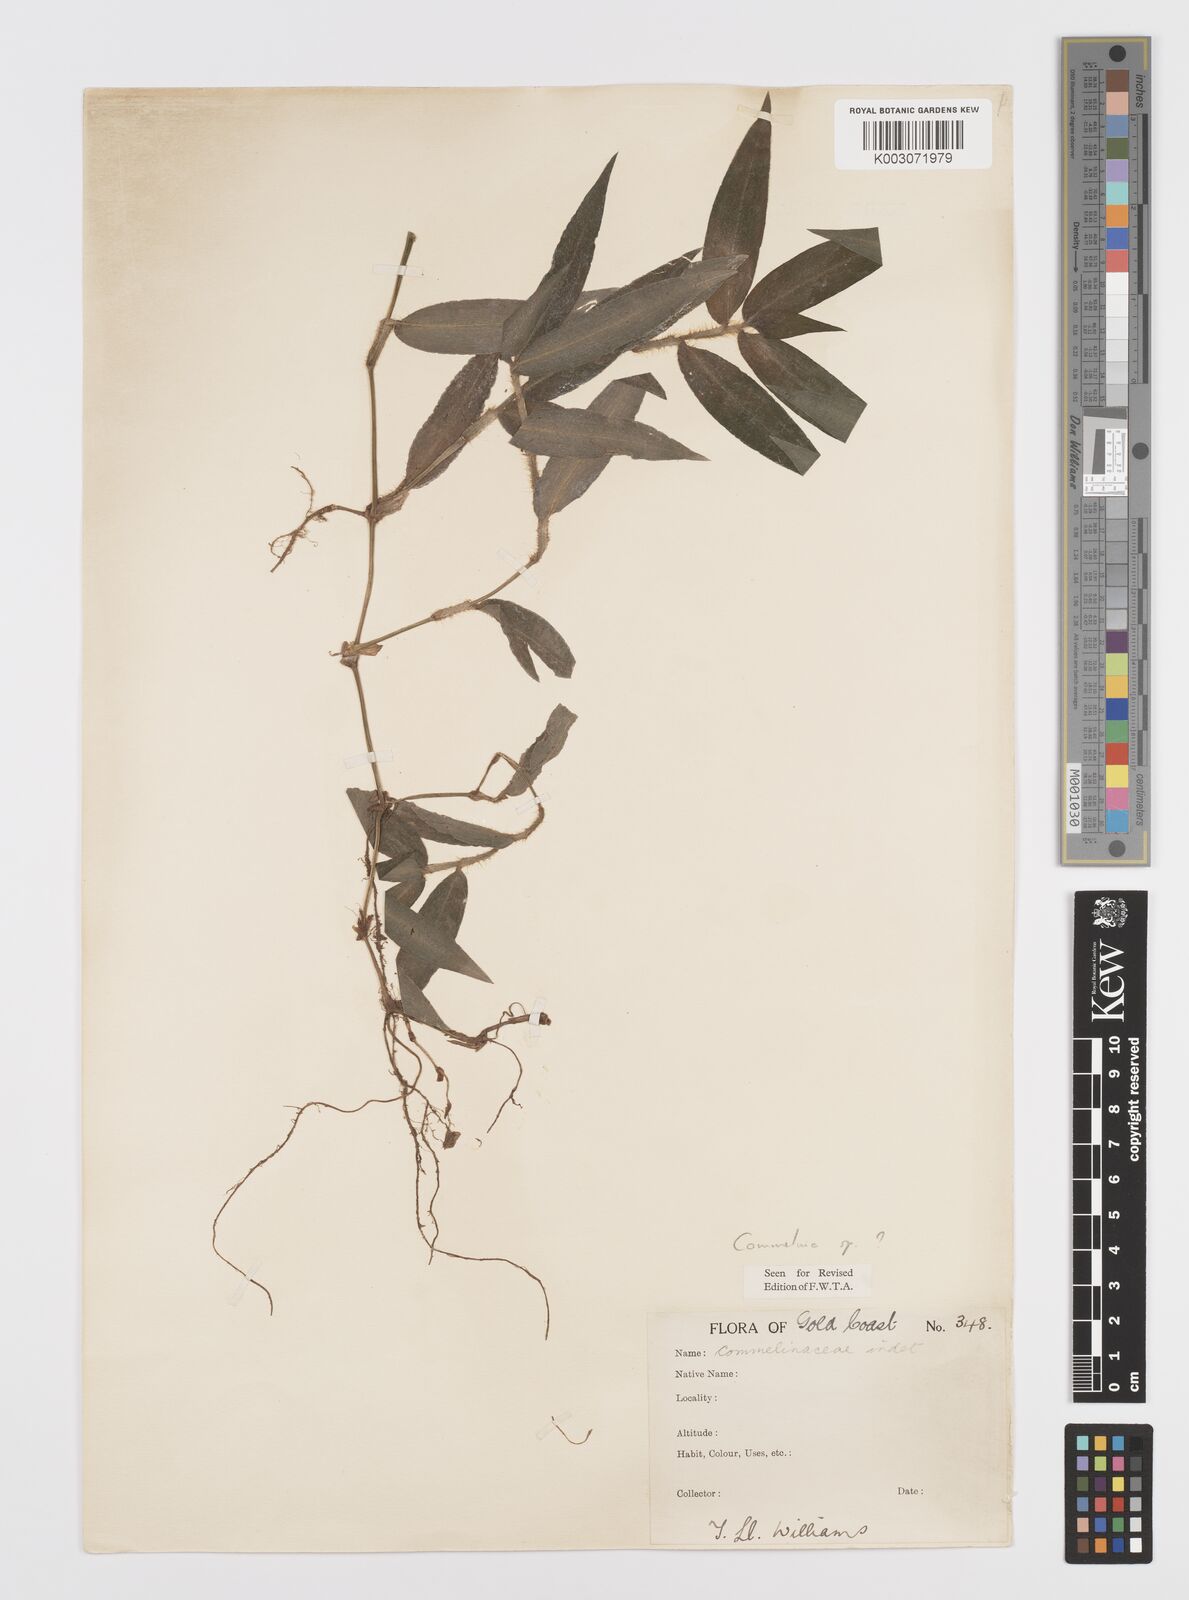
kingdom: Plantae
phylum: Tracheophyta
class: Liliopsida
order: Commelinales
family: Commelinaceae
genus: Commelina
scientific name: Commelina
